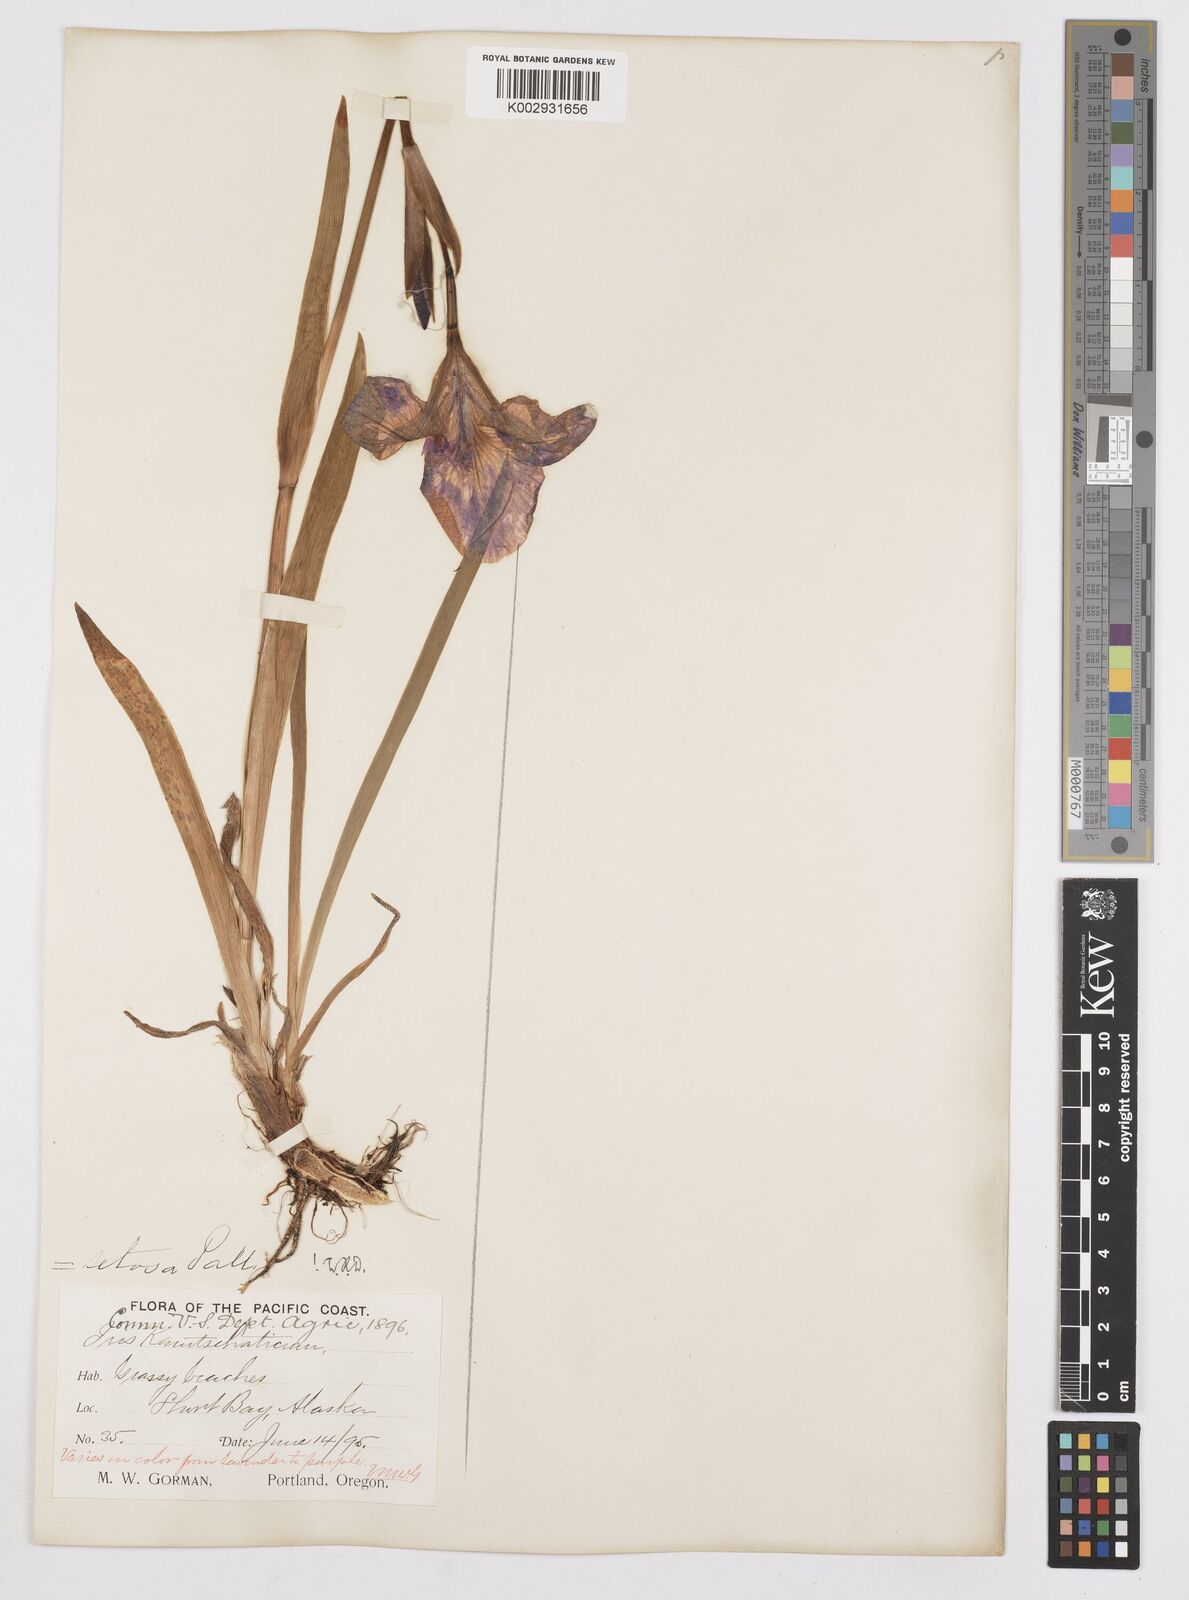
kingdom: Plantae
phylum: Tracheophyta
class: Liliopsida
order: Asparagales
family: Iridaceae
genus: Iris
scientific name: Iris setosa
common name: Arctic blue flag
